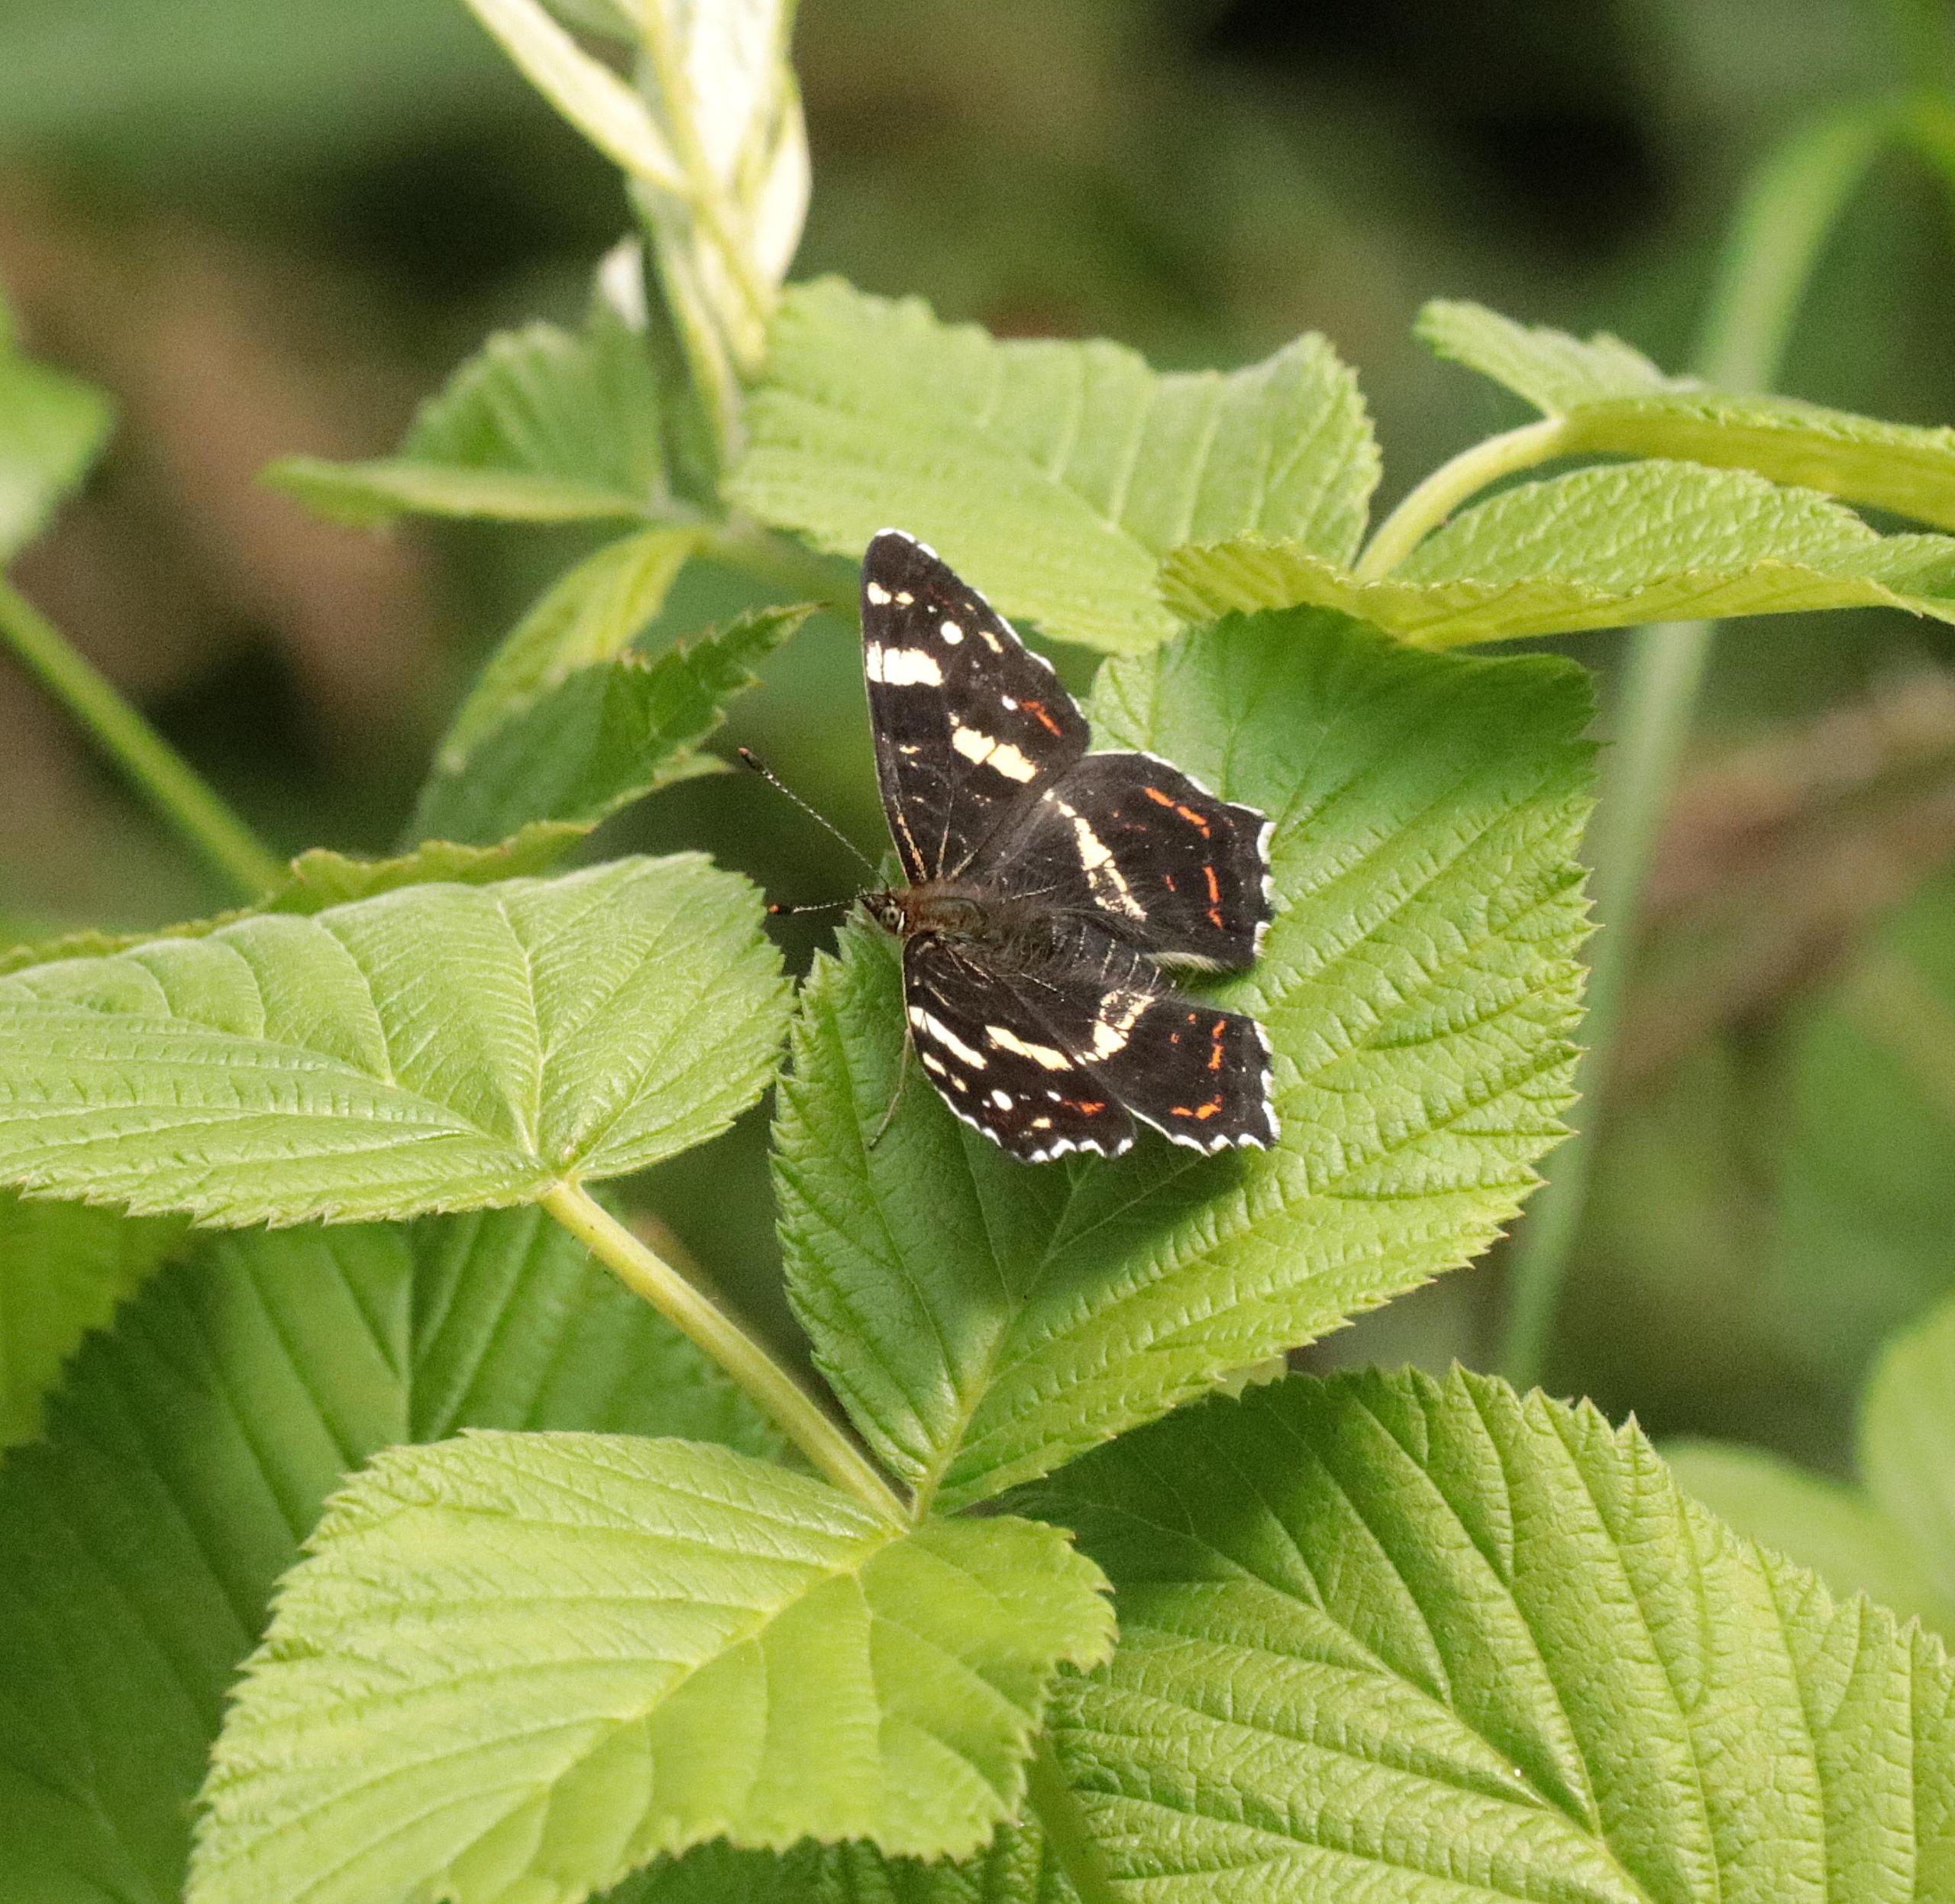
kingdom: Animalia
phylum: Arthropoda
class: Insecta
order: Lepidoptera
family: Nymphalidae
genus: Araschnia
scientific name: Araschnia levana
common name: Nældesommerfugl
